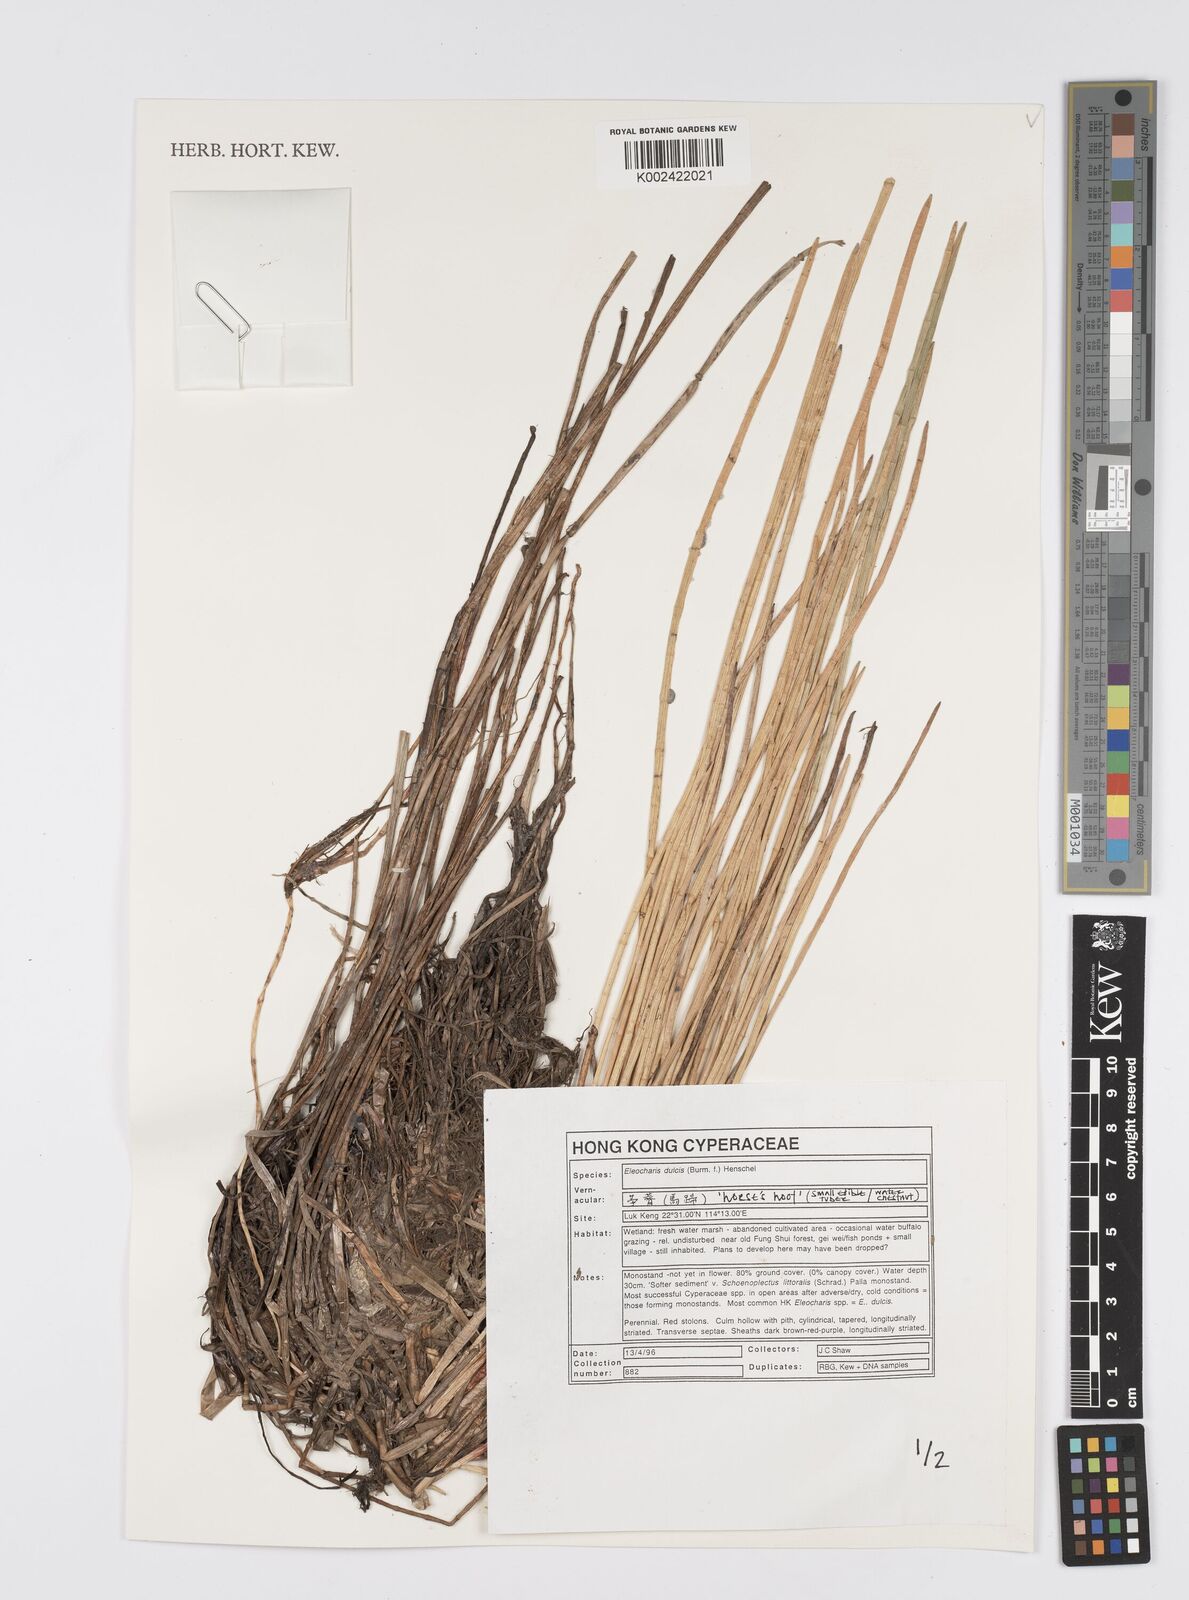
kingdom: Plantae
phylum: Tracheophyta
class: Liliopsida
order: Poales
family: Cyperaceae
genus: Eleocharis
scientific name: Eleocharis dulcis
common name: Chinese water chestnut
